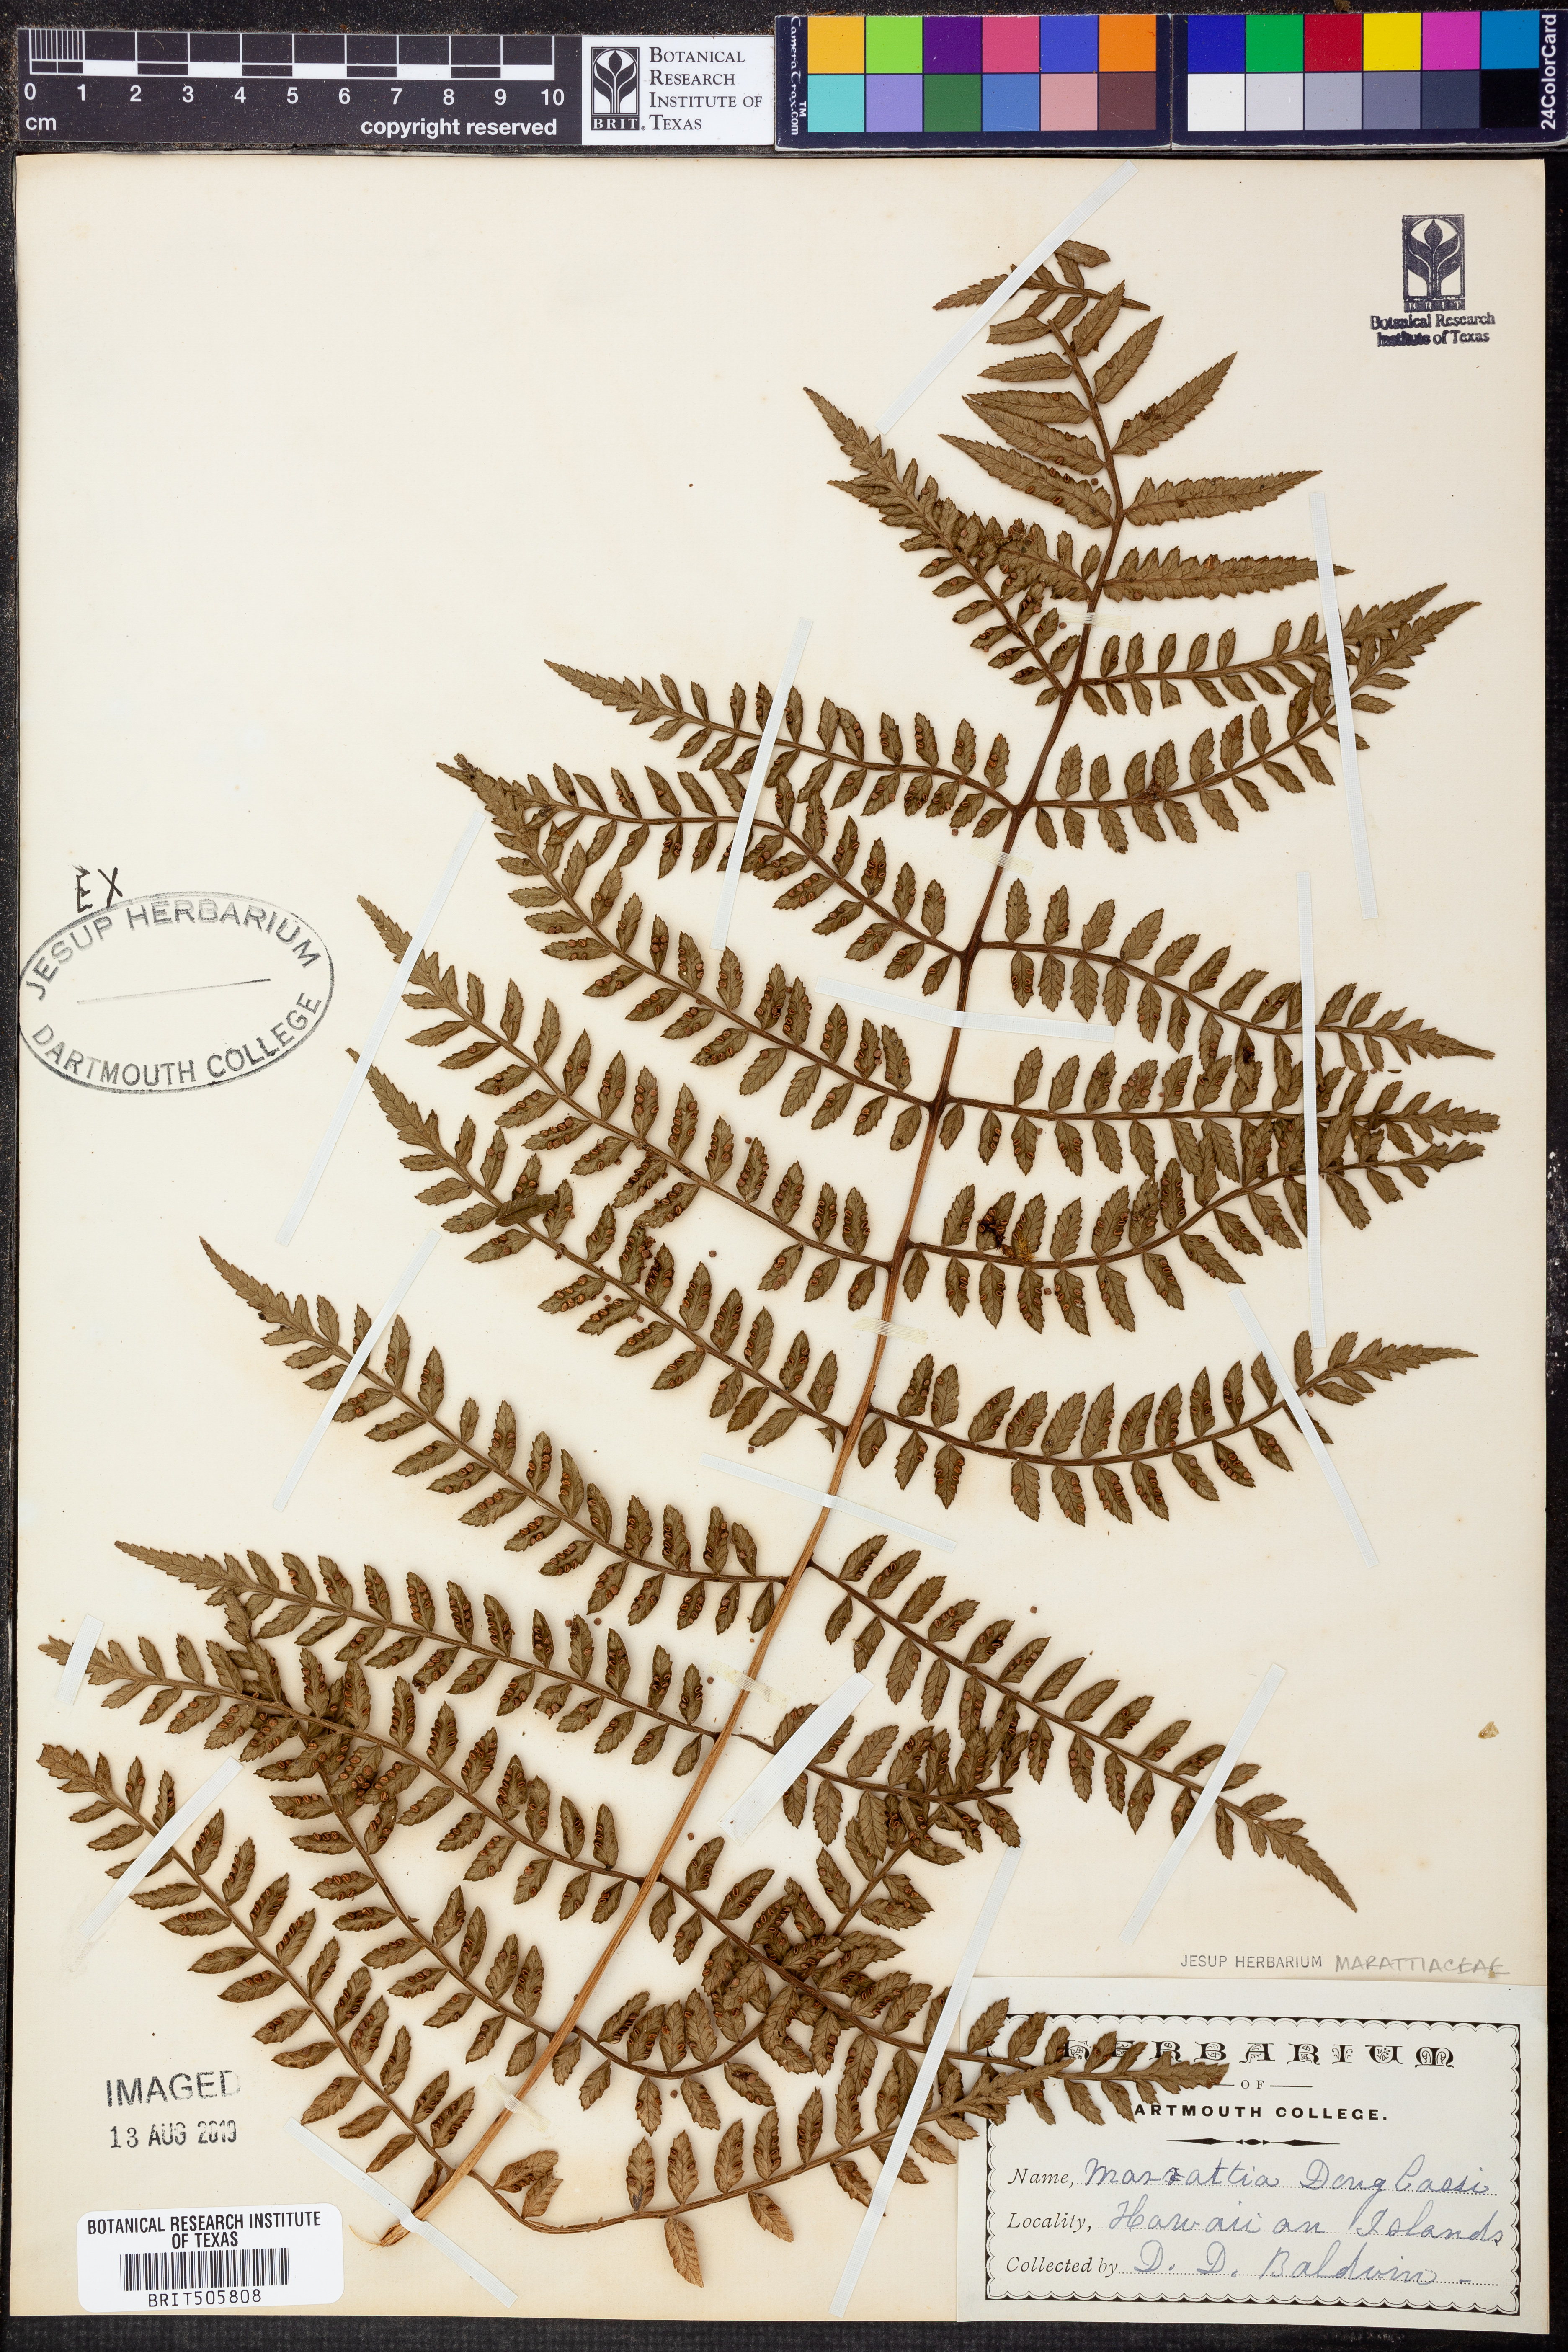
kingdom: Plantae
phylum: Tracheophyta
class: Polypodiopsida
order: Marattiales
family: Marattiaceae
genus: Marattia
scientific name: Marattia douglasii
